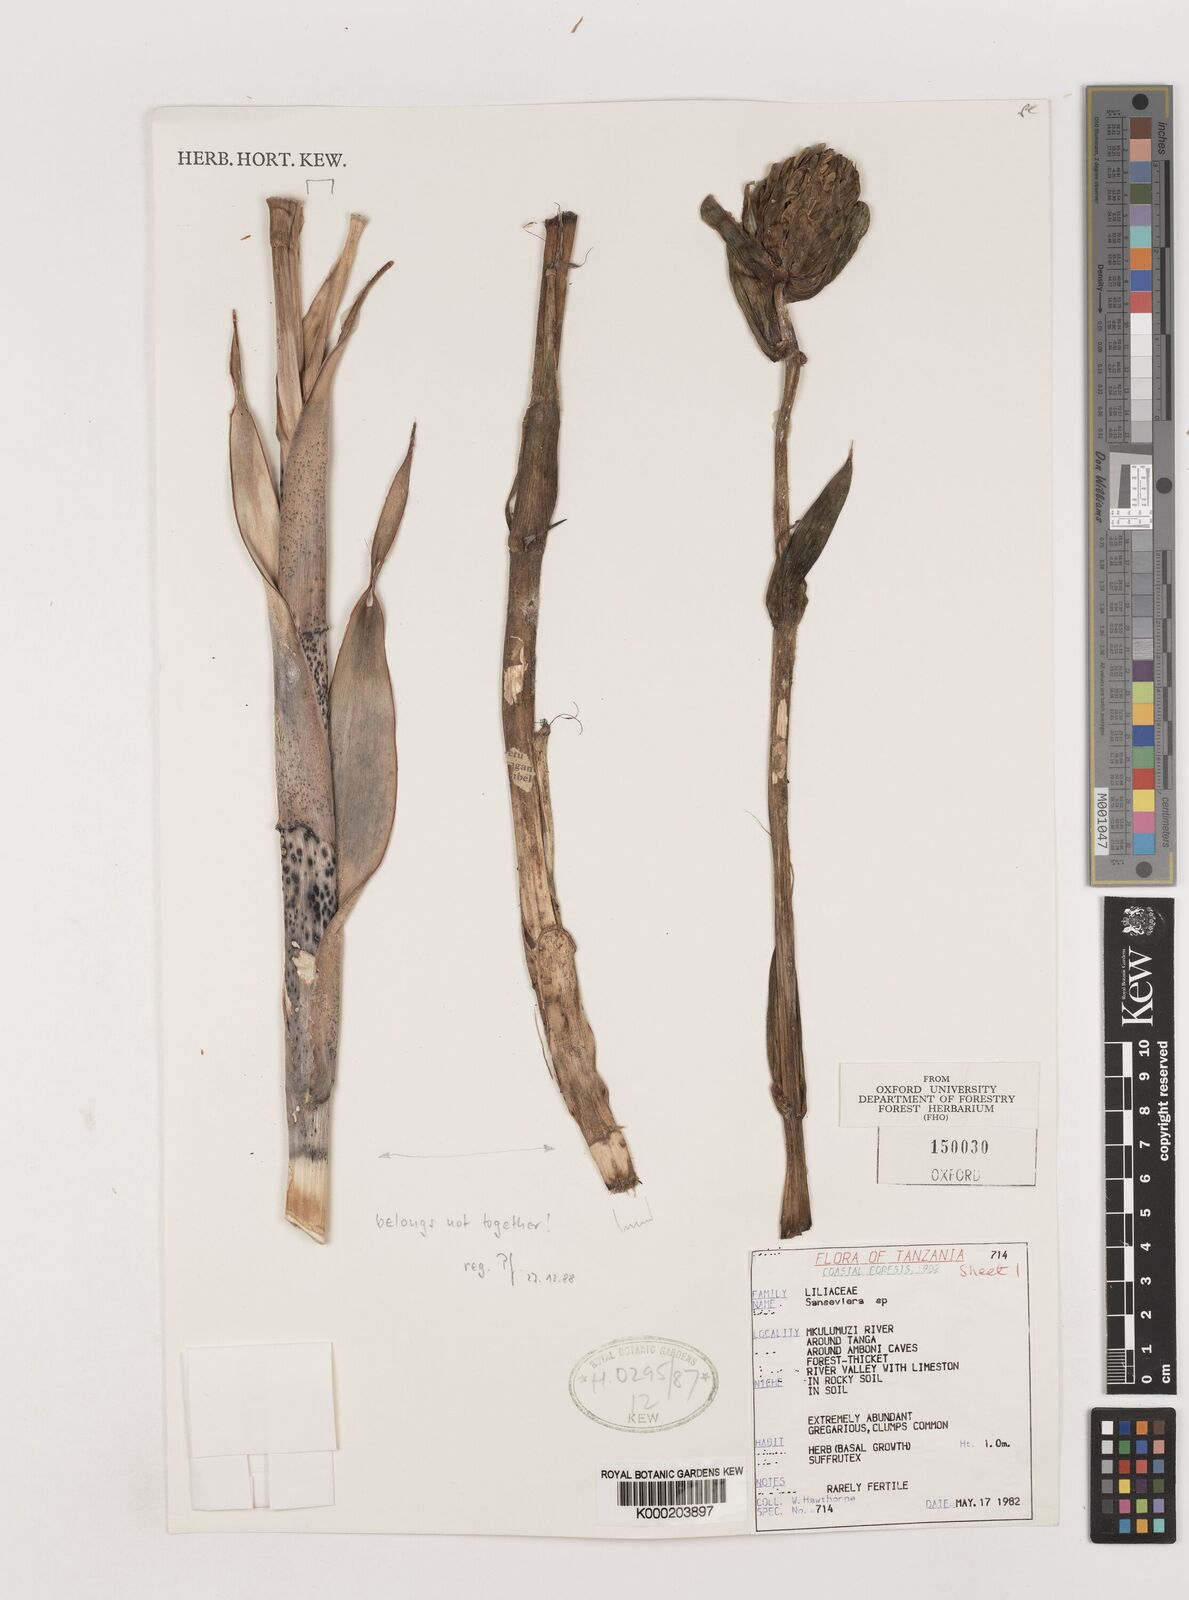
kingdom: Plantae
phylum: Tracheophyta
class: Liliopsida
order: Asparagales
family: Asparagaceae
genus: Dracaena
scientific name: Dracaena conspicua
